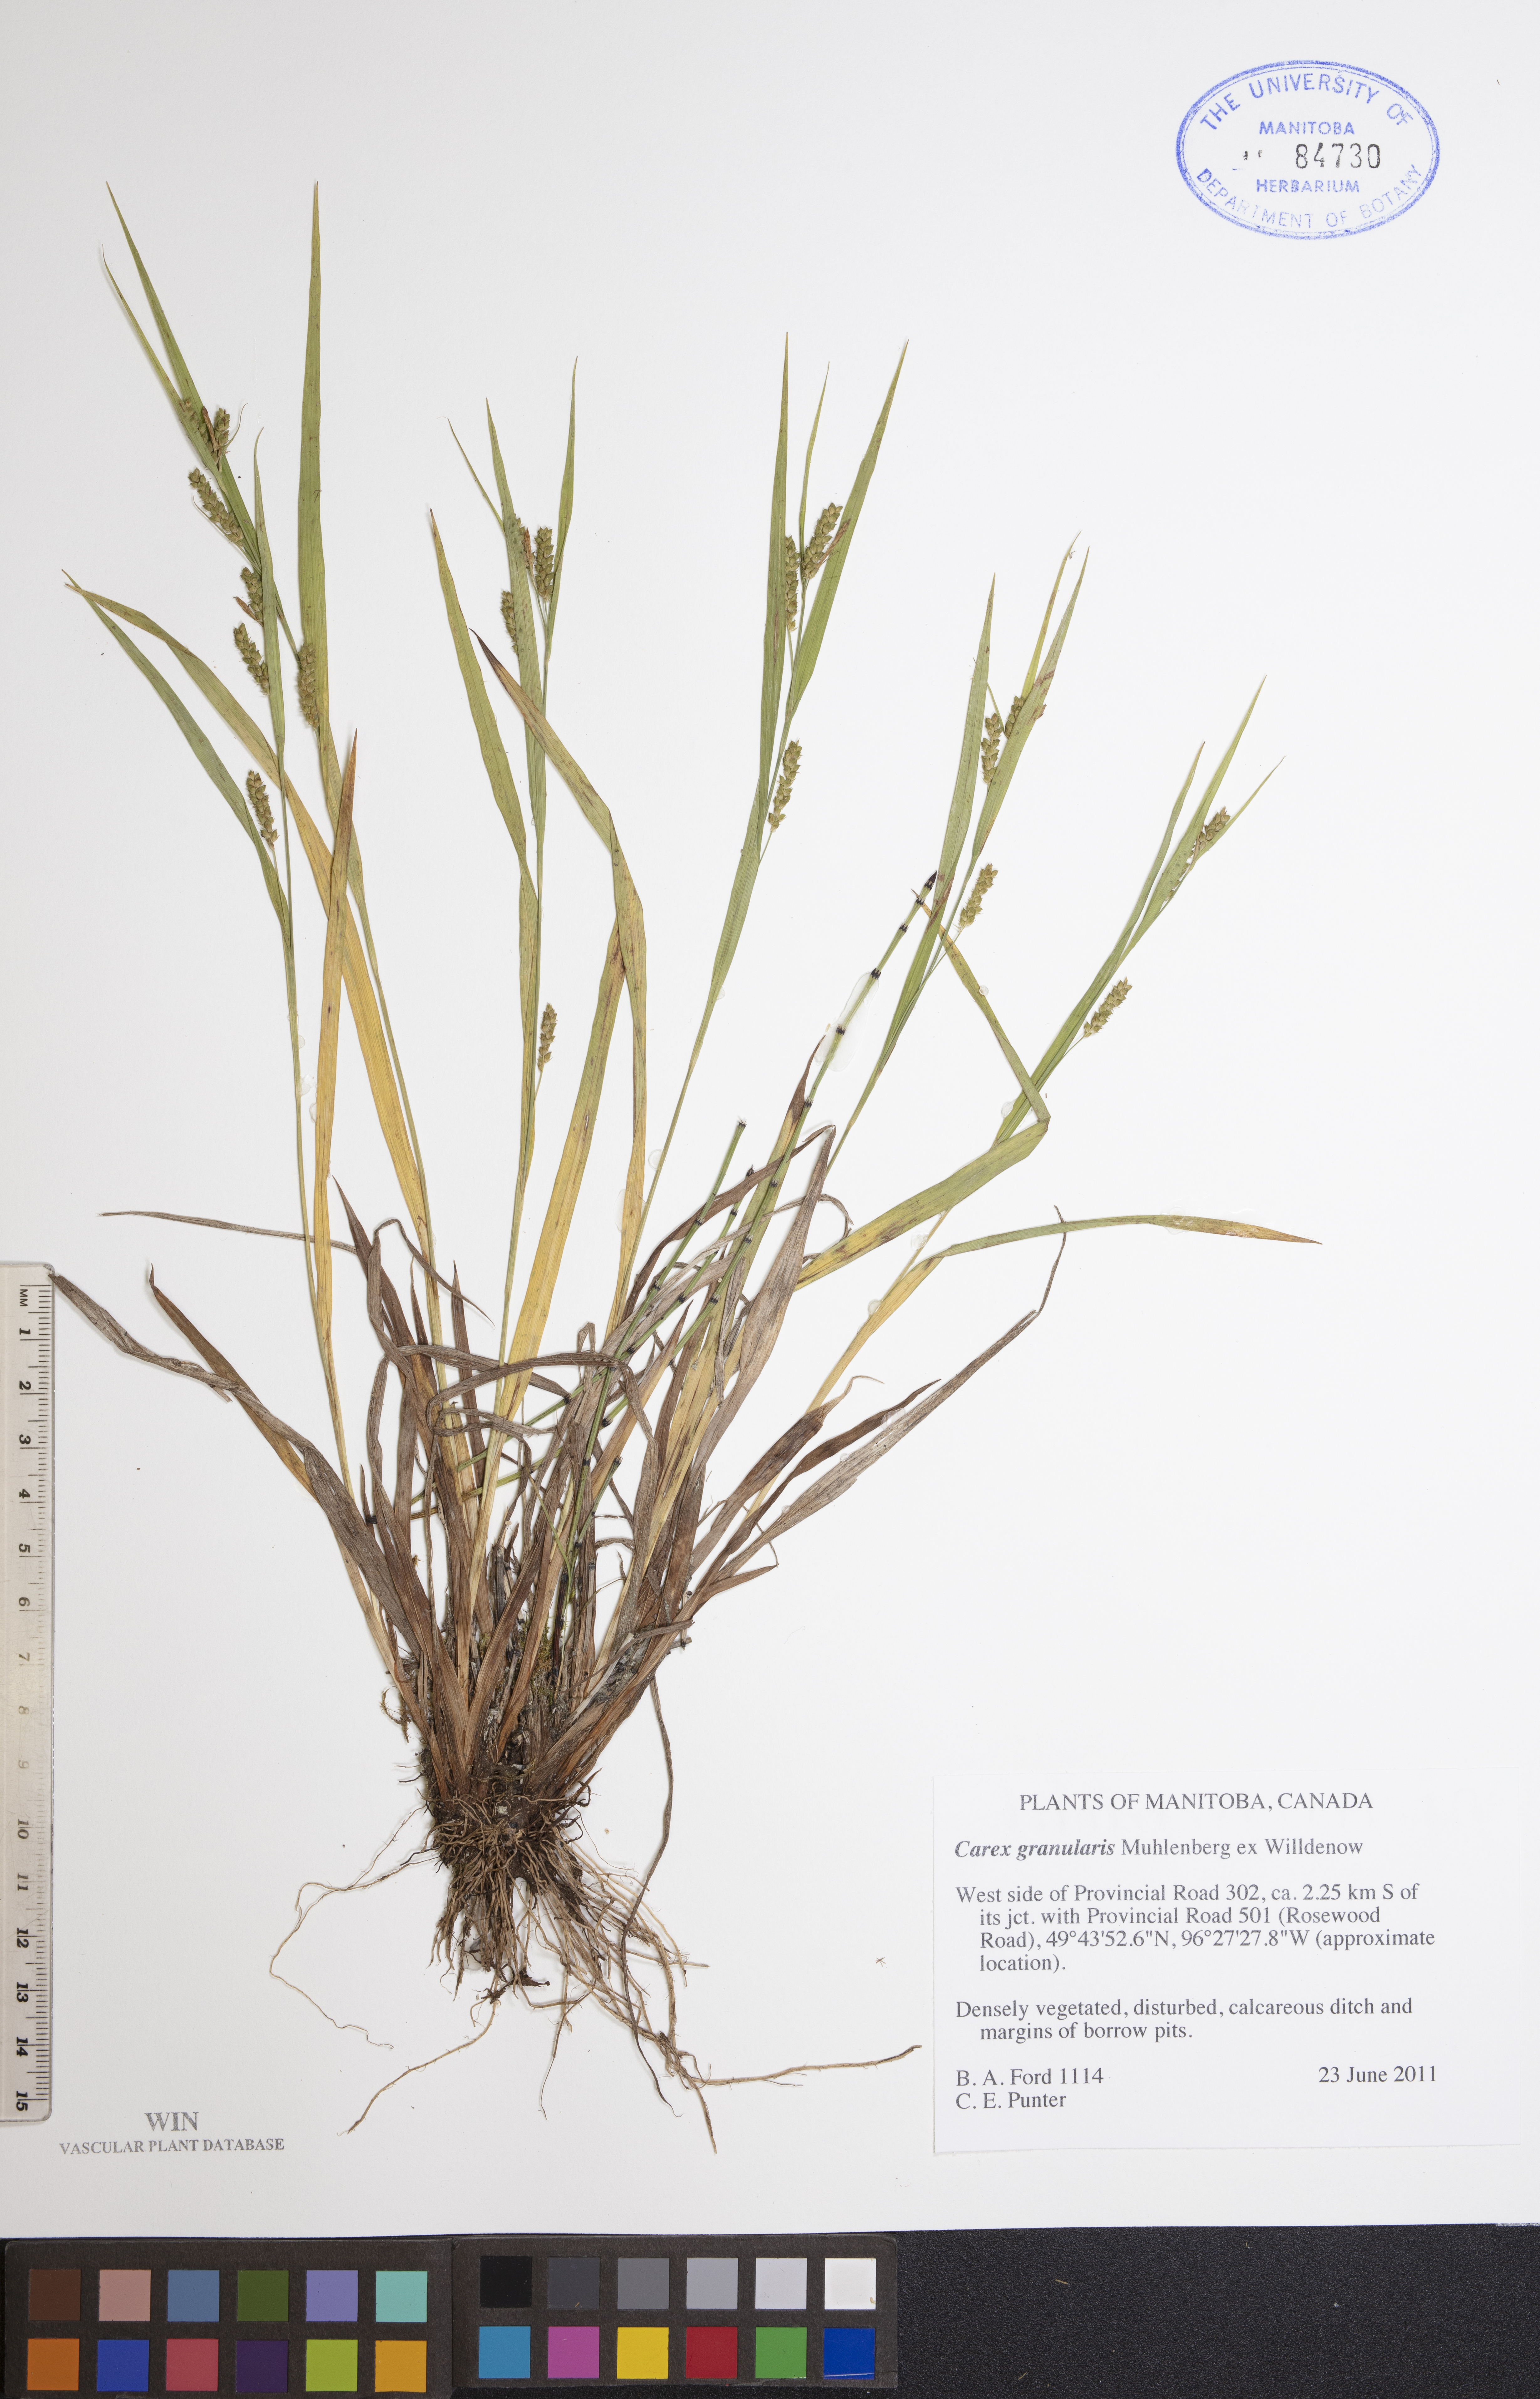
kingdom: Plantae
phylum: Tracheophyta
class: Liliopsida
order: Poales
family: Cyperaceae
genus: Carex
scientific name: Carex granularis
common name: Granular sedge
